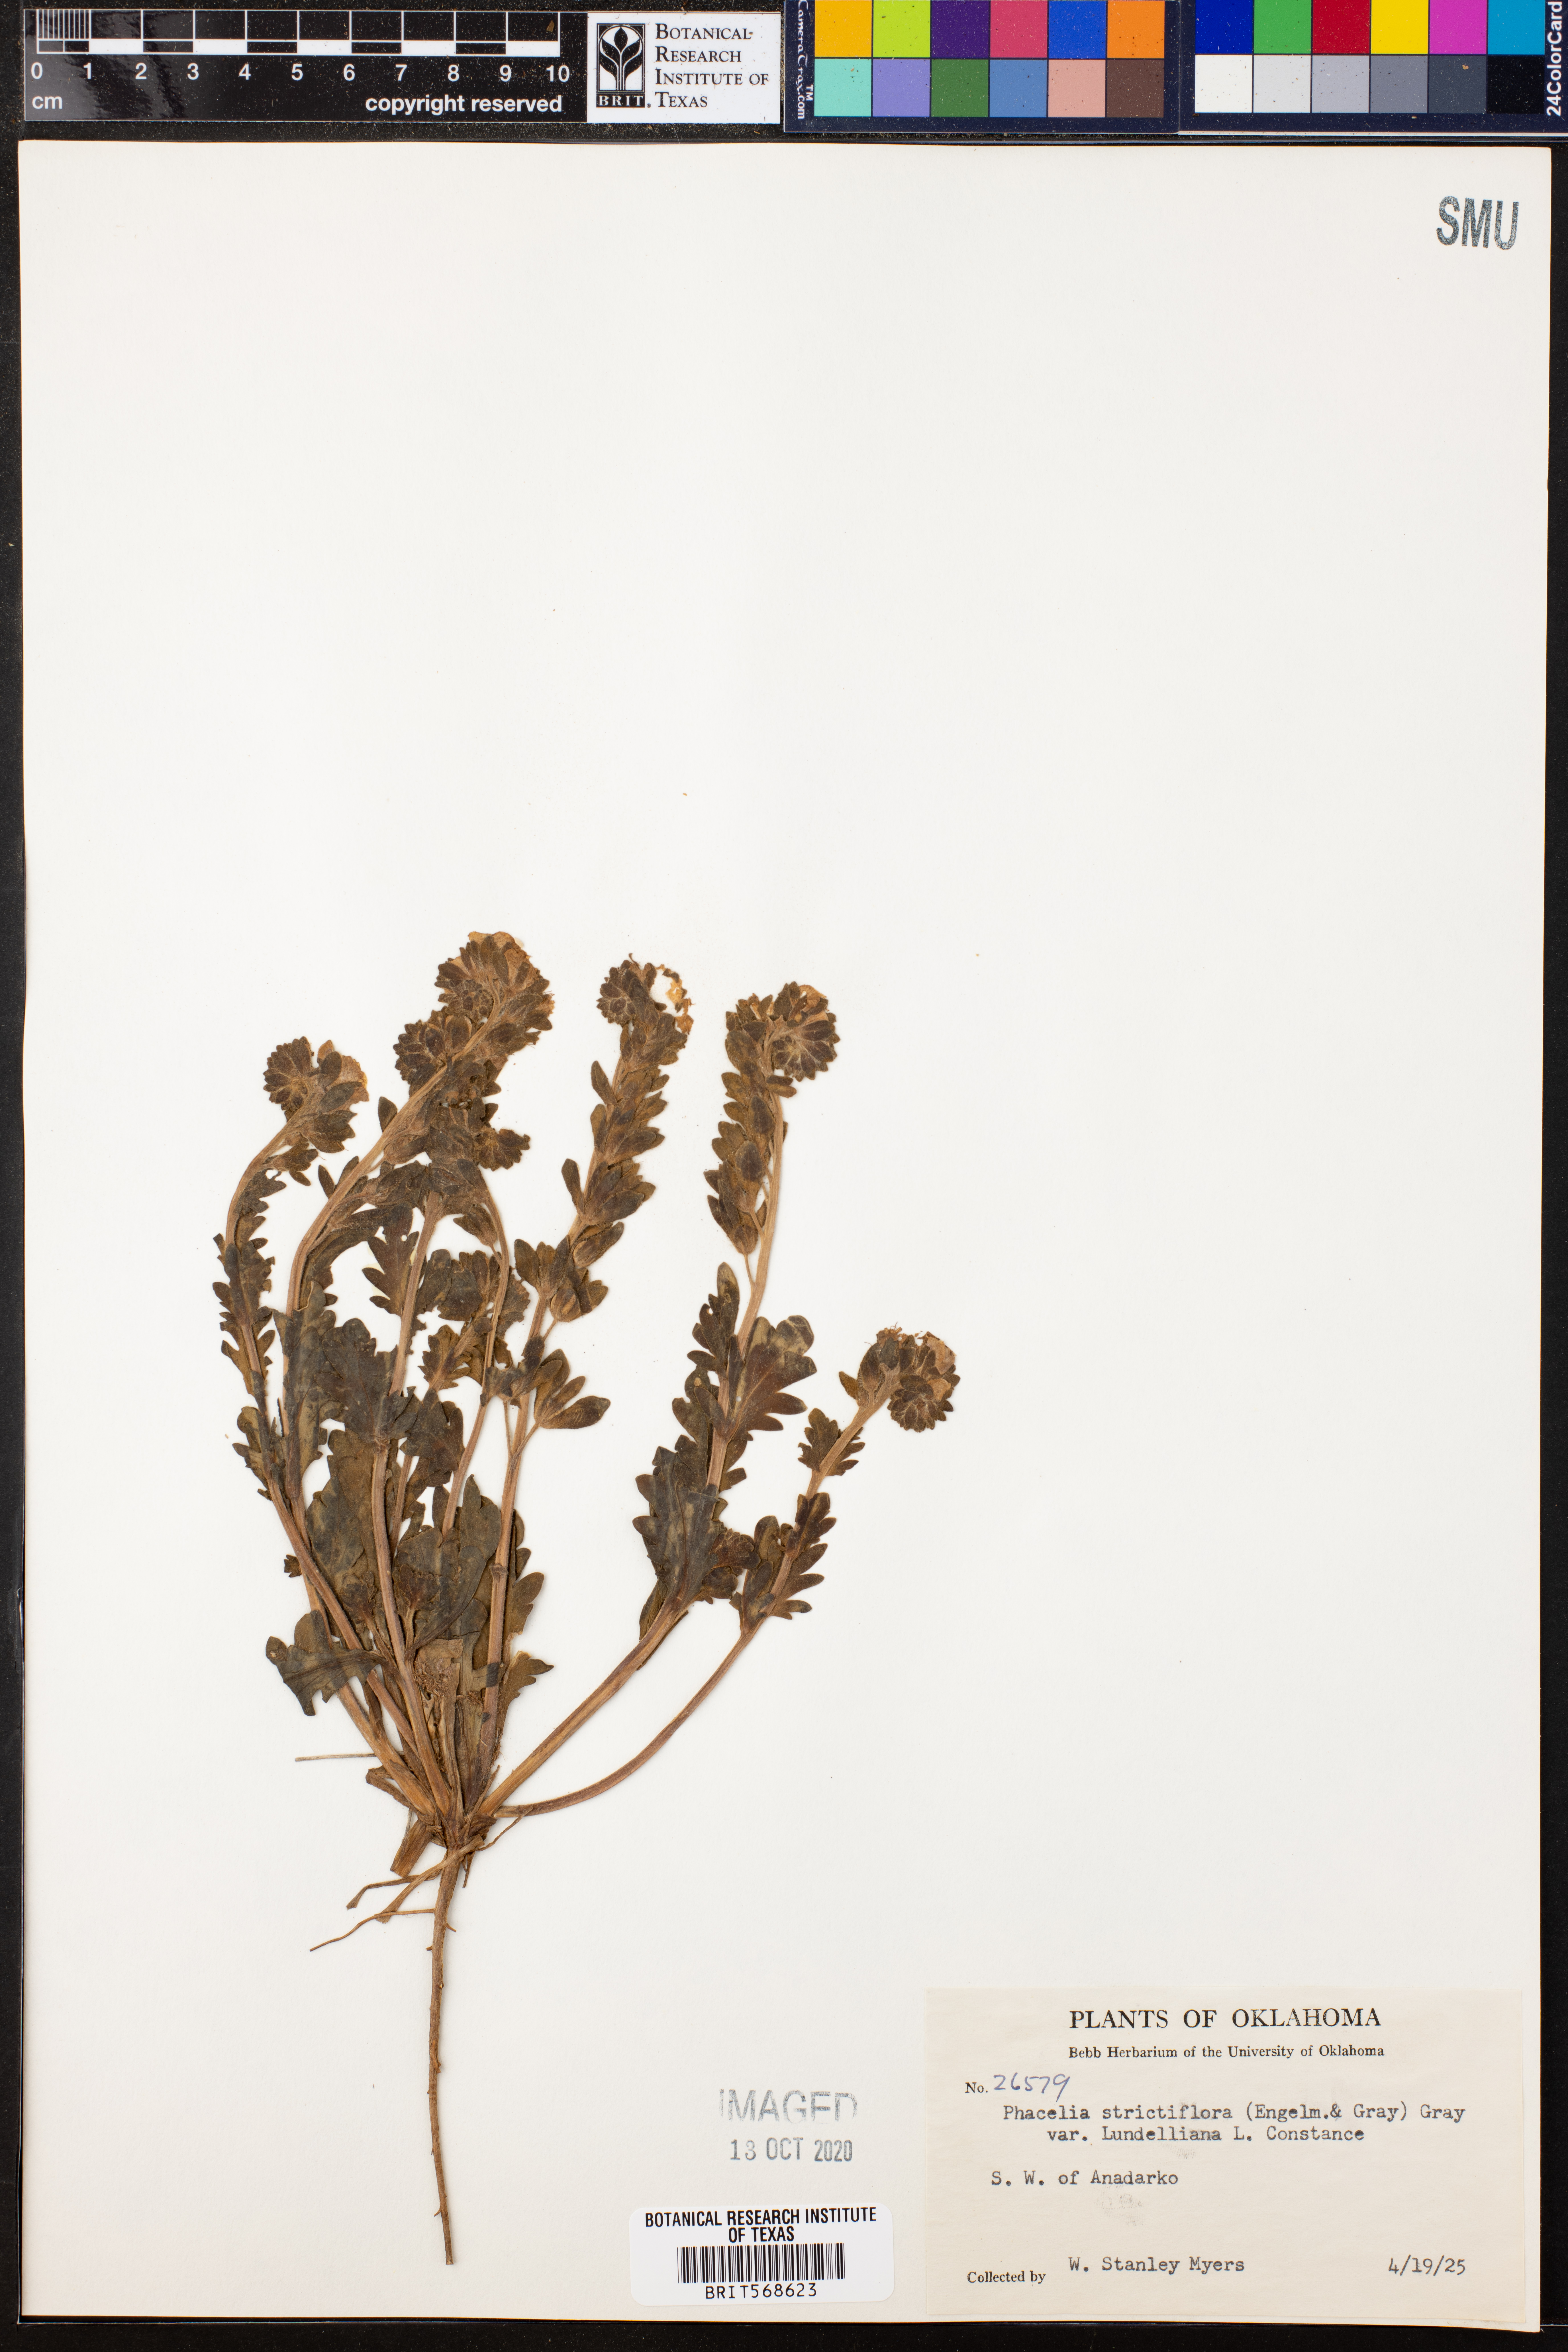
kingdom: Plantae
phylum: Tracheophyta
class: Magnoliopsida
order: Boraginales
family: Hydrophyllaceae
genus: Phacelia
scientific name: Phacelia strictiflora
